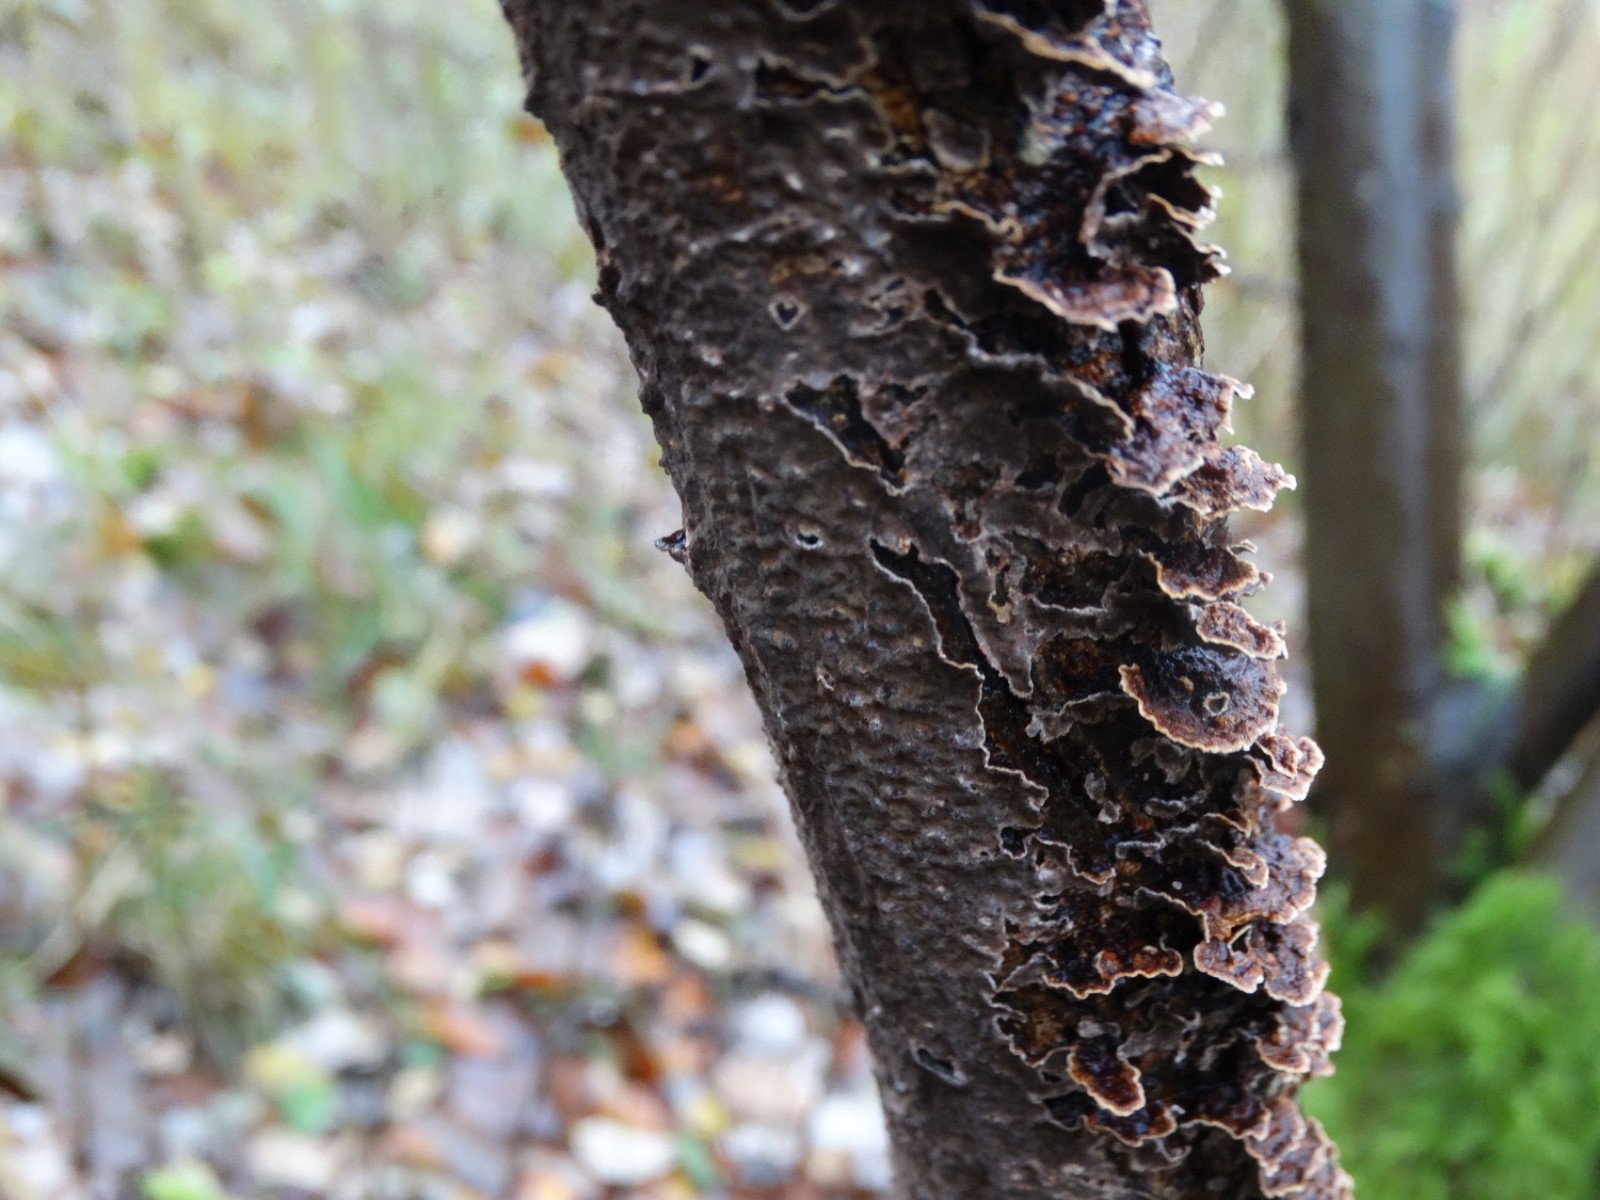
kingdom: Fungi
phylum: Basidiomycota
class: Agaricomycetes
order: Hymenochaetales
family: Hymenochaetaceae
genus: Hydnoporia
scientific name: Hydnoporia tabacina
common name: tobaksbrun ruslædersvamp
